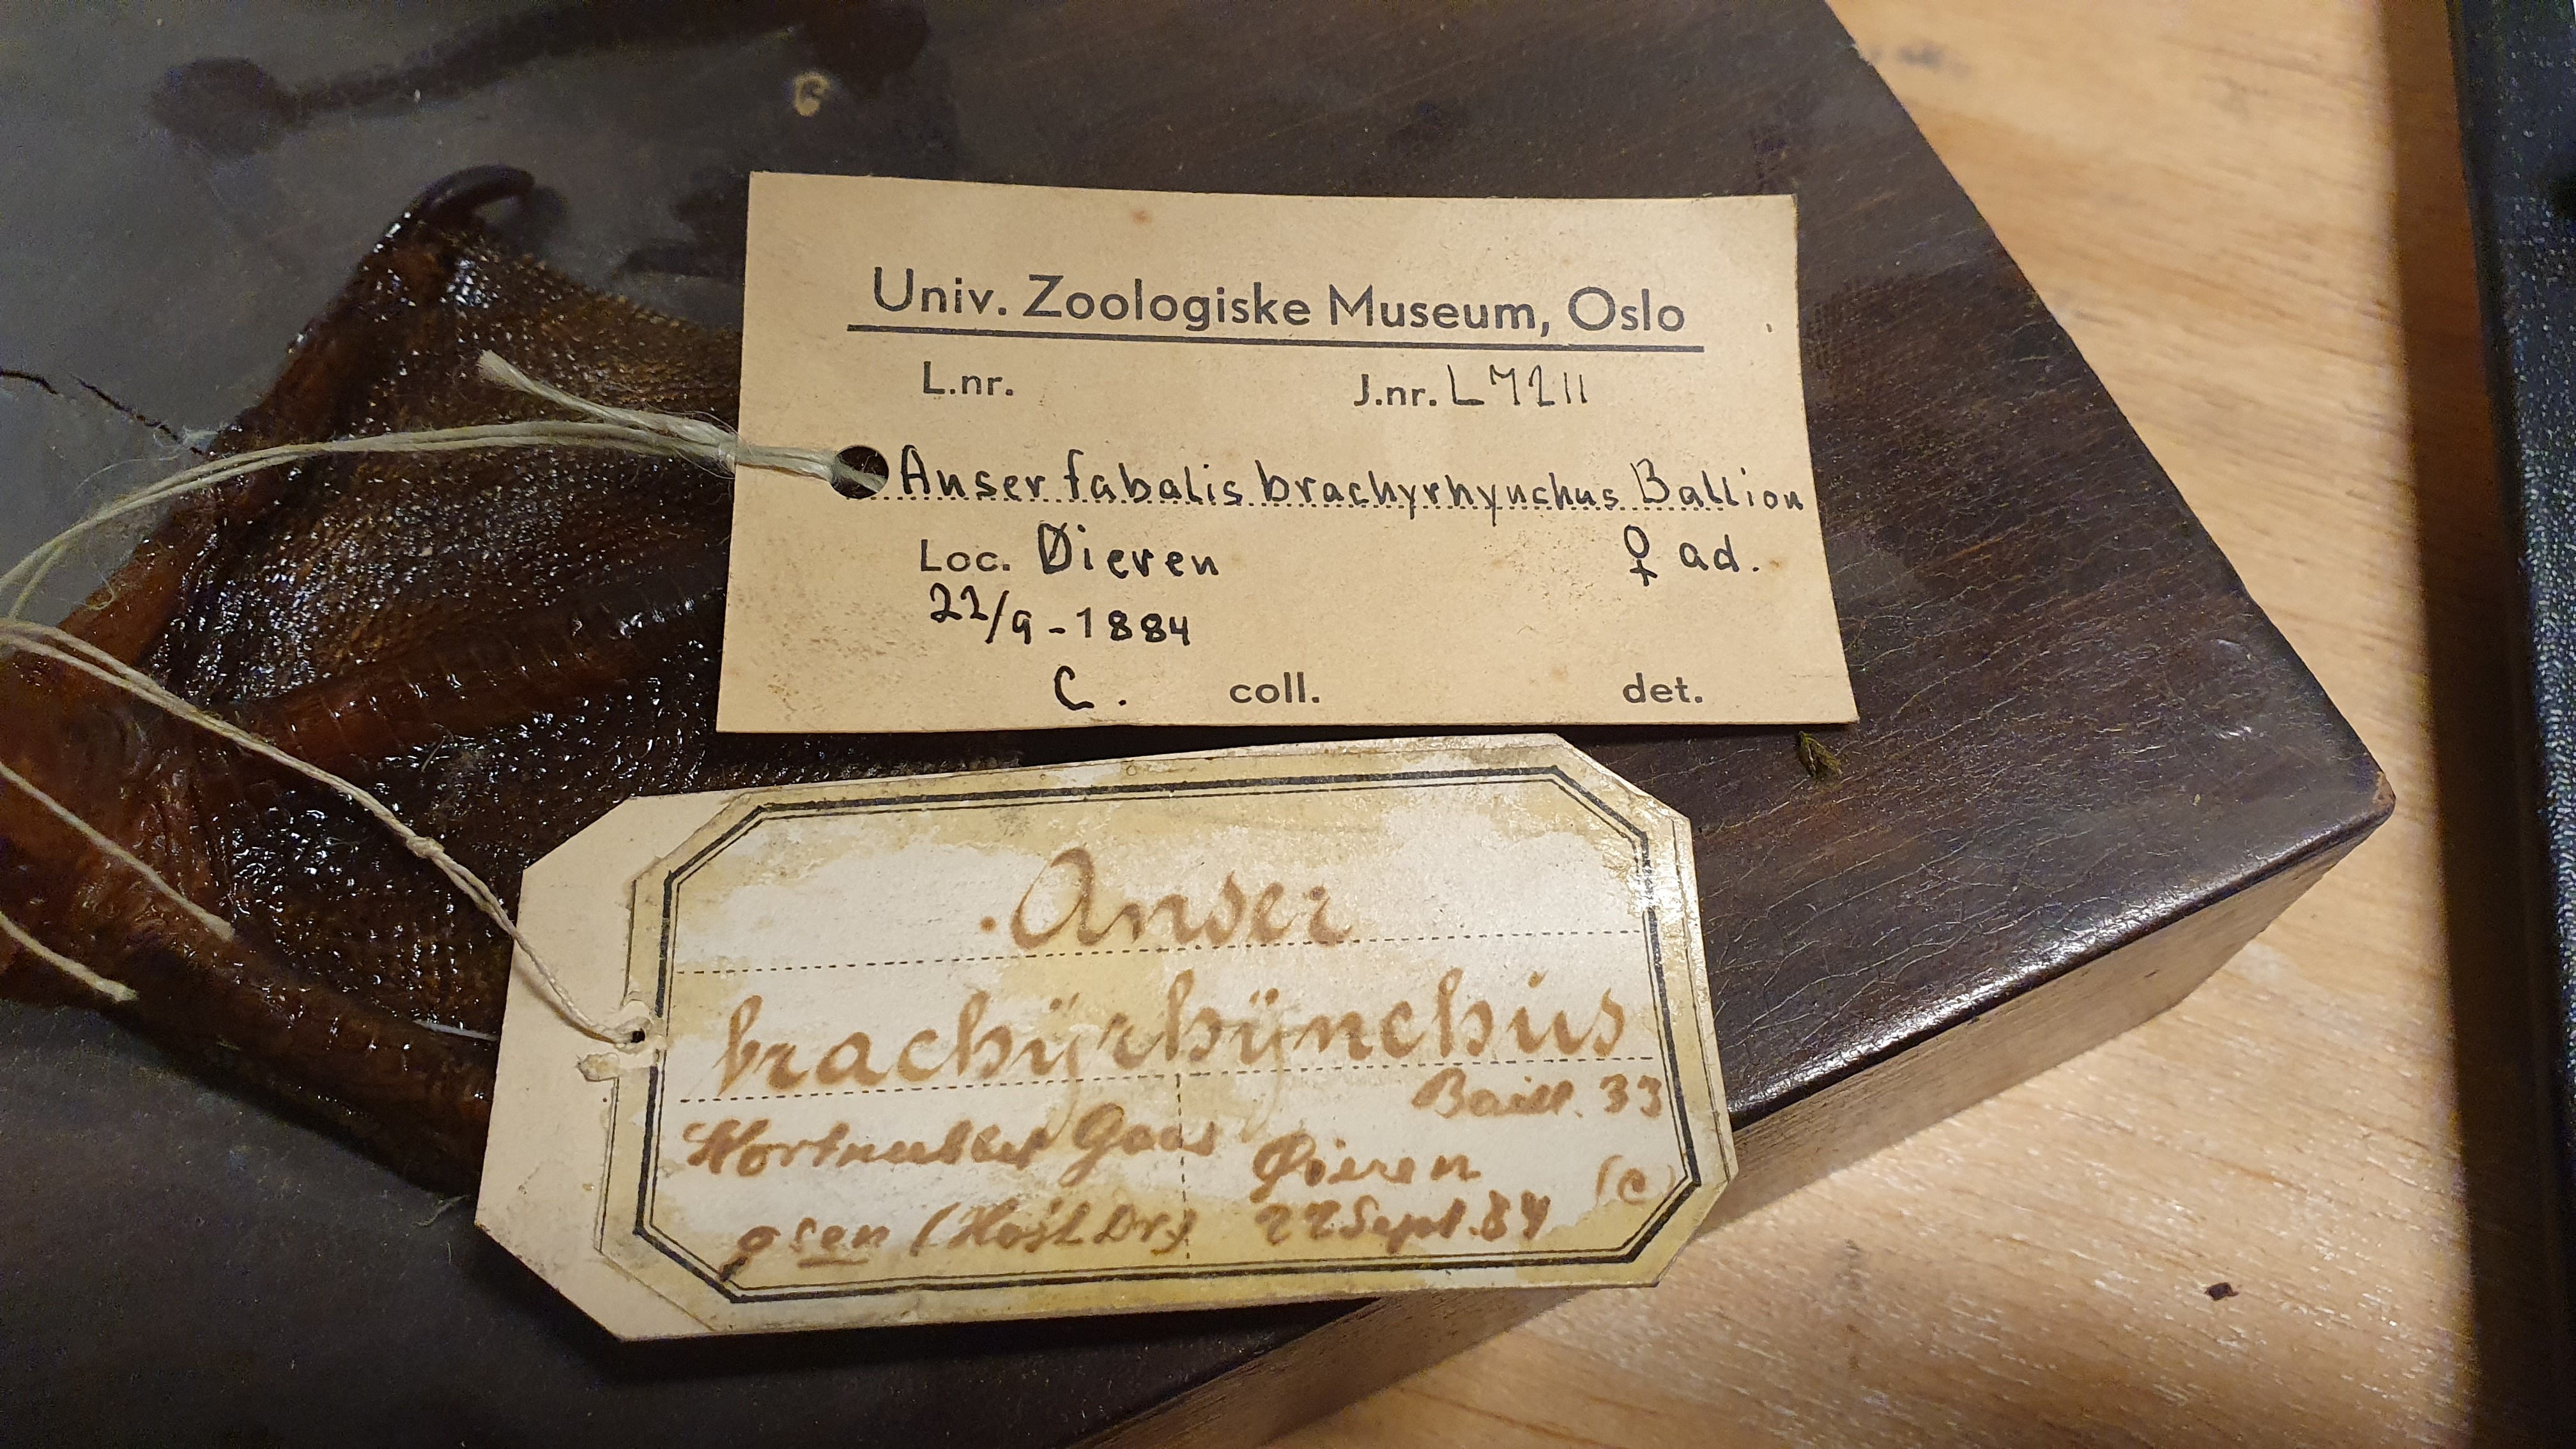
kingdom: Animalia
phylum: Chordata
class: Aves
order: Anseriformes
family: Anatidae
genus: Anser
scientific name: Anser brachyrhynchus
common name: Pink-footed goose
